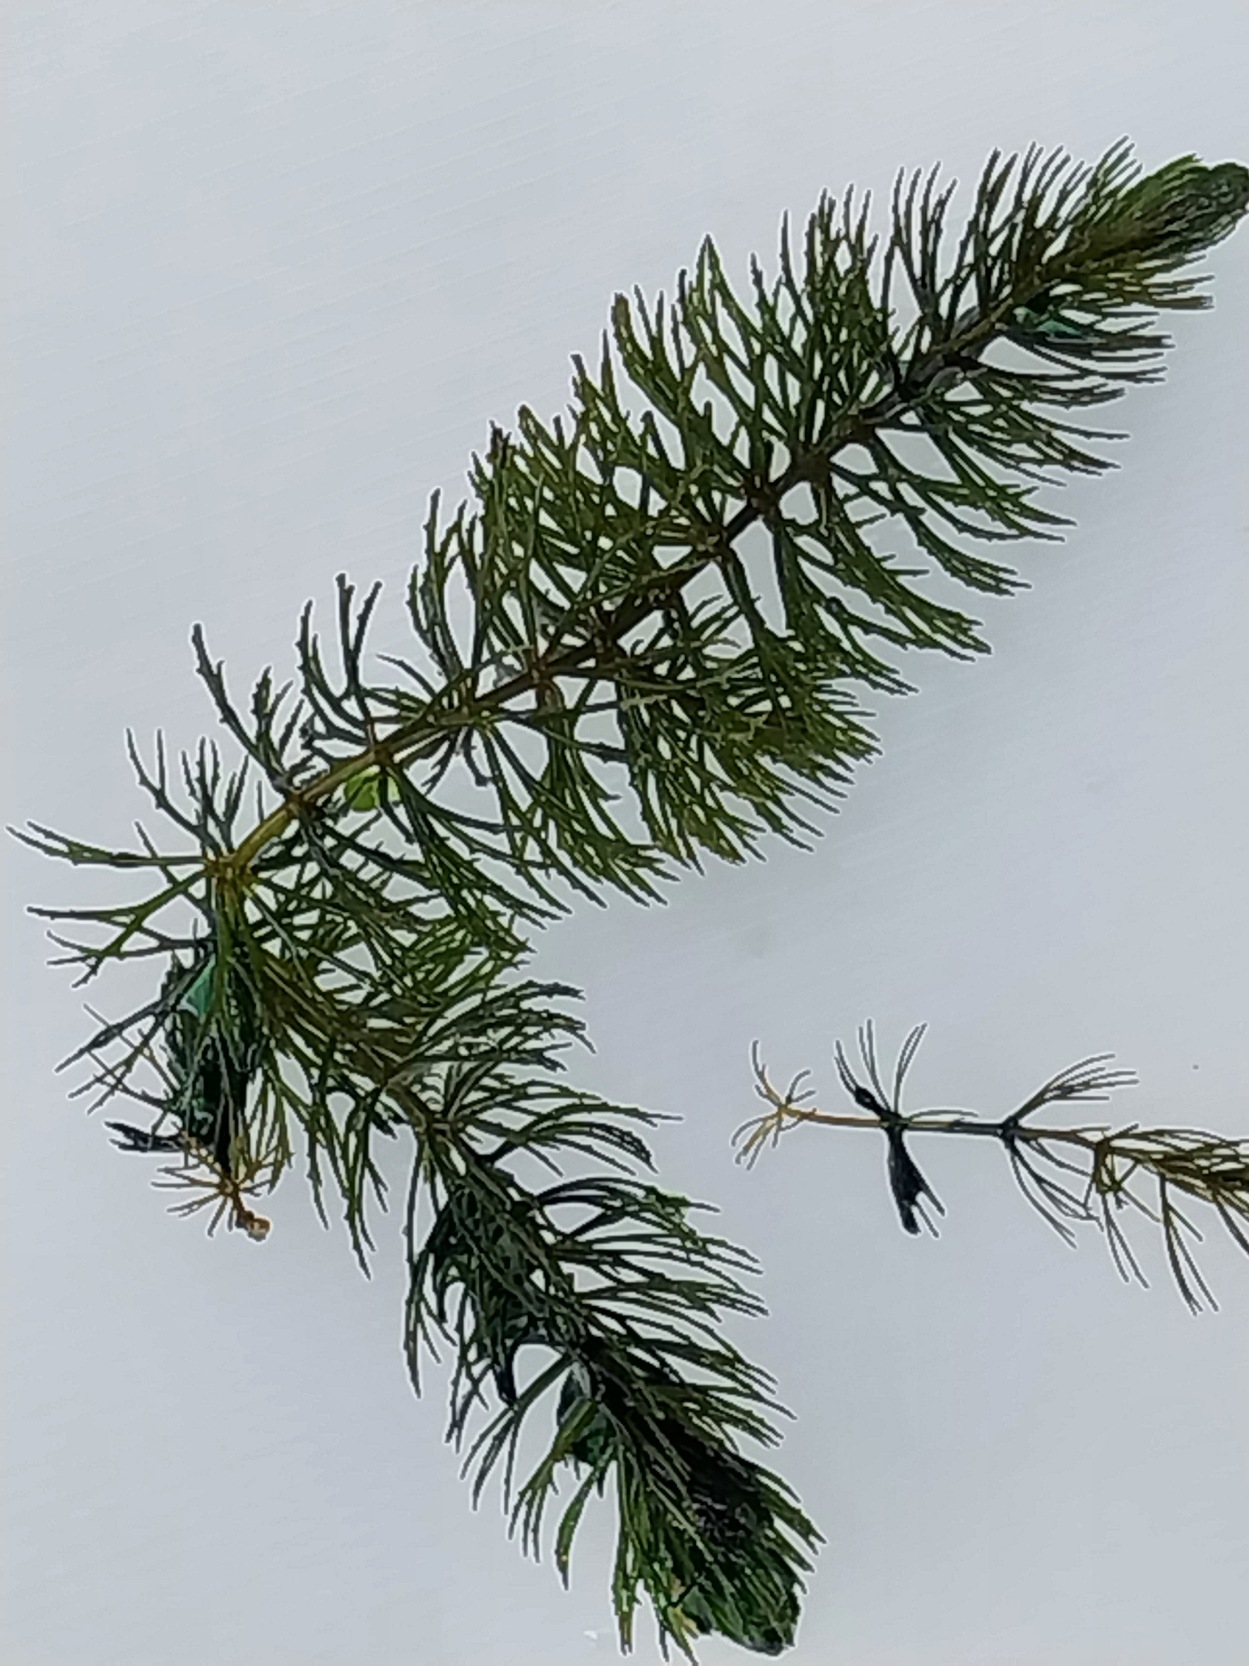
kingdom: Plantae
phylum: Tracheophyta
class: Magnoliopsida
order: Ceratophyllales
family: Ceratophyllaceae
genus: Ceratophyllum
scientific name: Ceratophyllum demersum
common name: Tornfrøet hornblad
